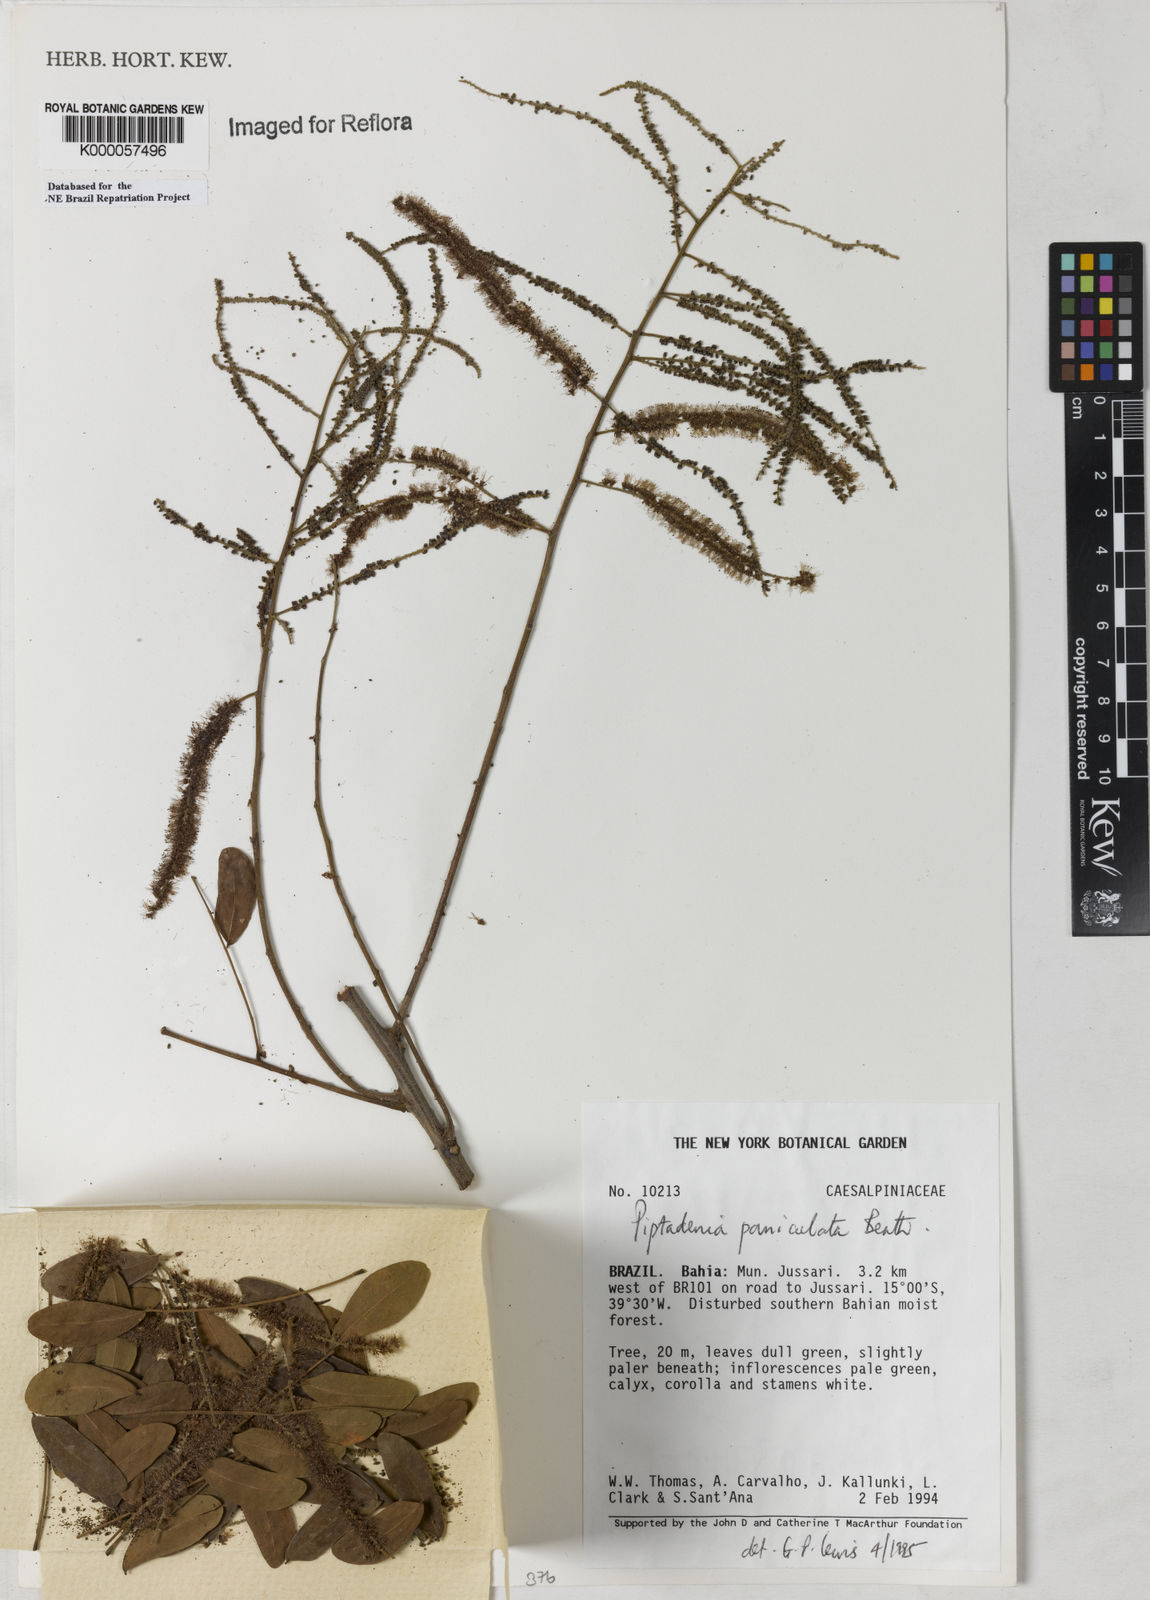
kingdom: Plantae
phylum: Tracheophyta
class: Magnoliopsida
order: Fabales
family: Fabaceae
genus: Piptadenia
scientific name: Piptadenia paniculata
